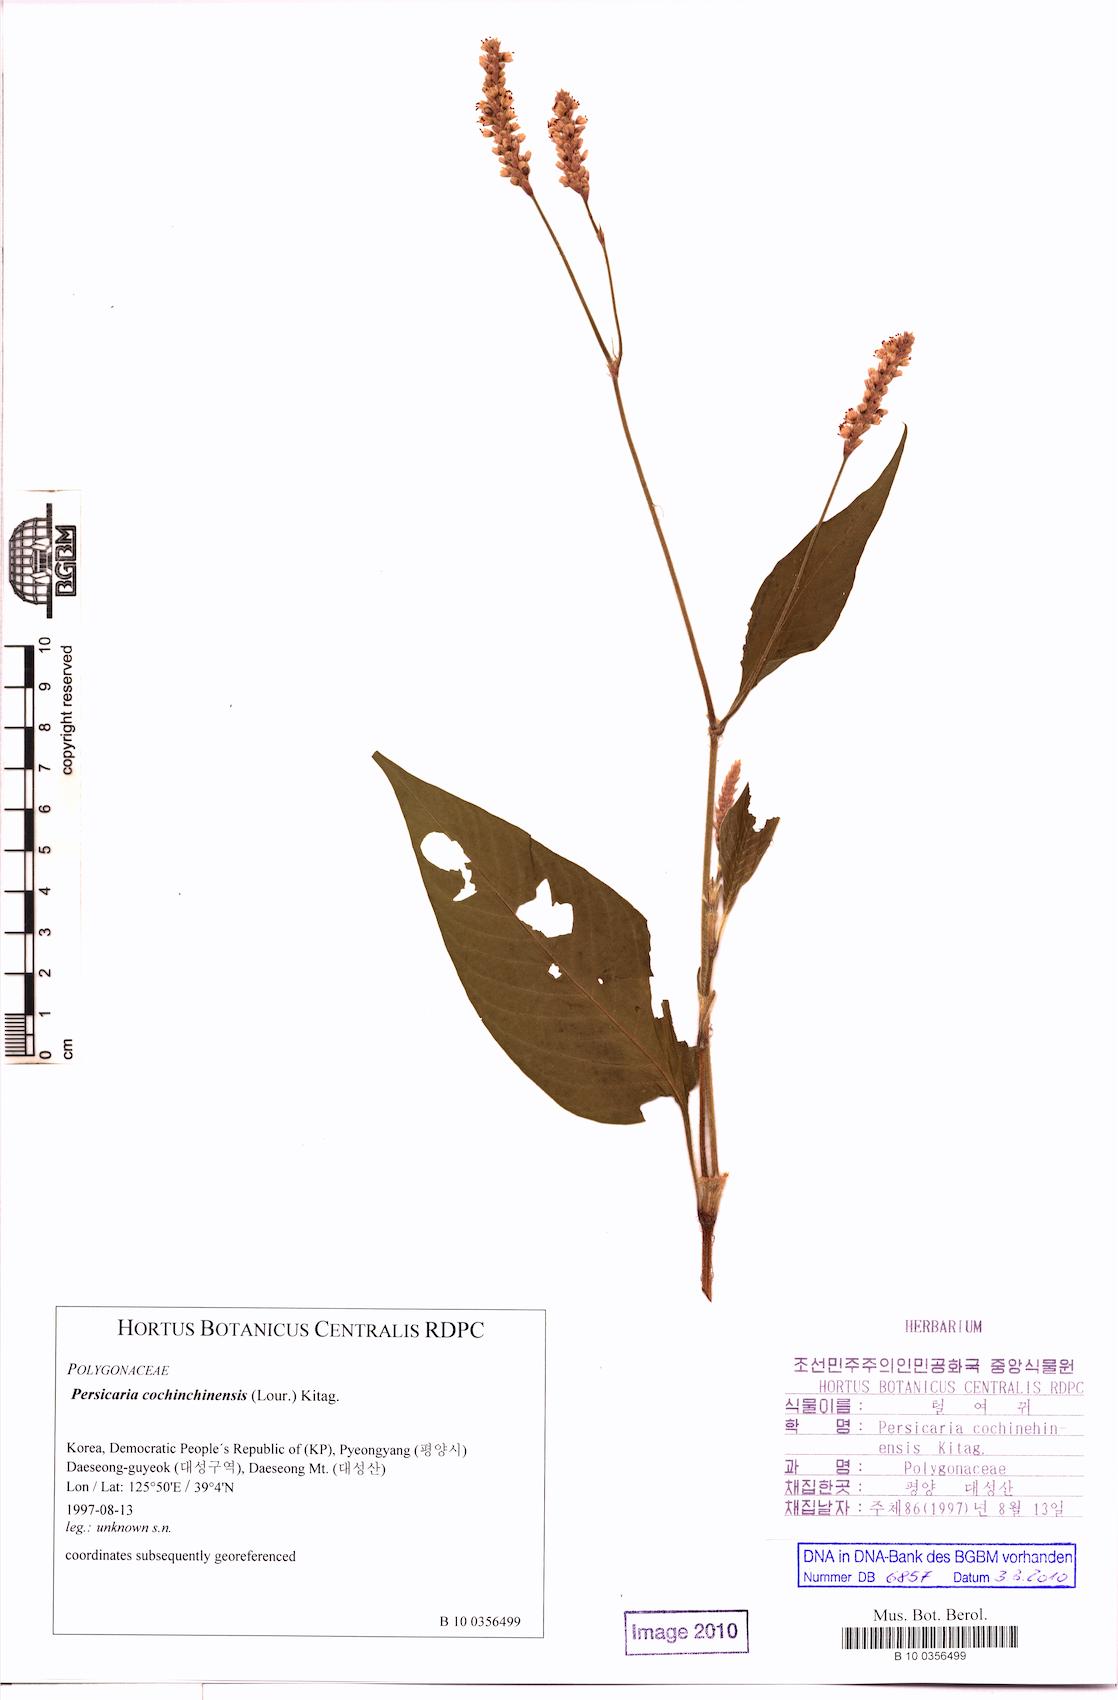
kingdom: Plantae
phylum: Tracheophyta
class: Magnoliopsida
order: Caryophyllales
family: Polygonaceae
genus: Persicaria
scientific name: Persicaria orientalis
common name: Kiss-me-over-the-garden-gate
